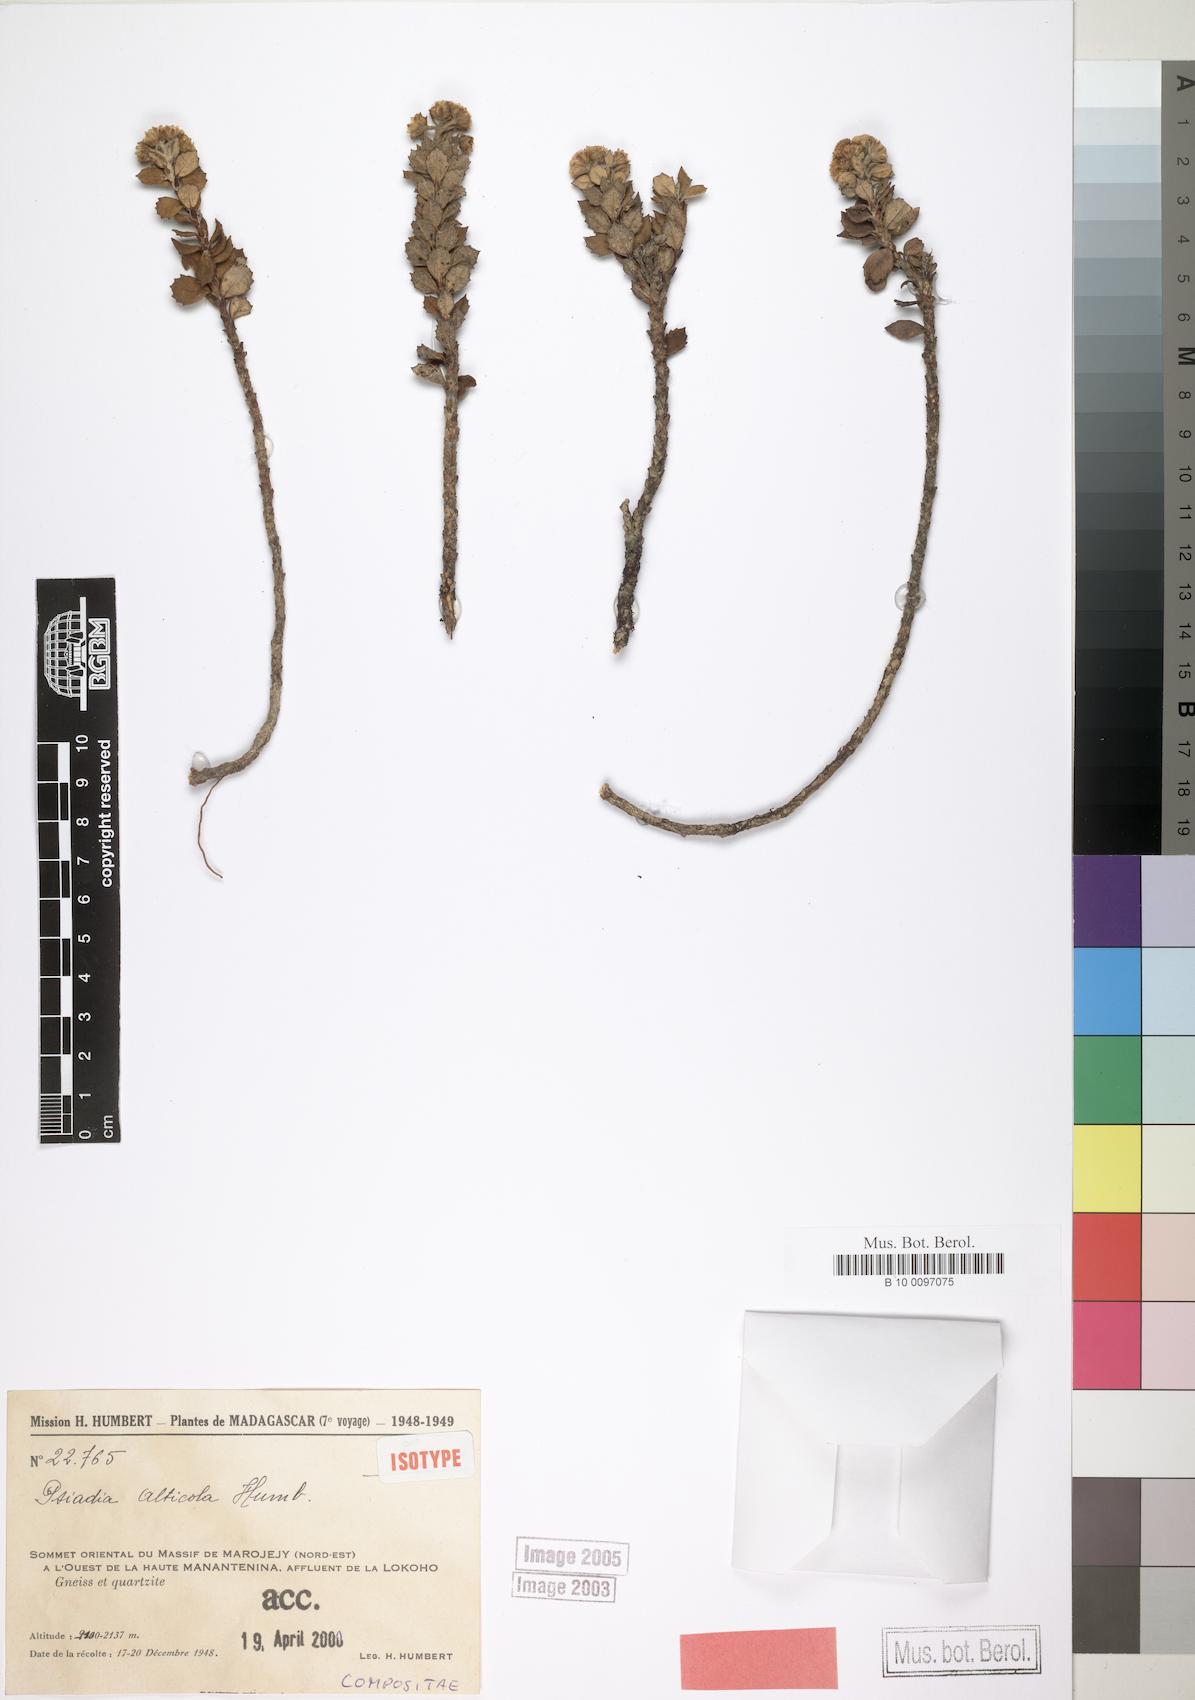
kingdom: Plantae
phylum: Tracheophyta
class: Magnoliopsida
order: Asterales
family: Asteraceae
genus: Psiadia
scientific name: Psiadia alticola
